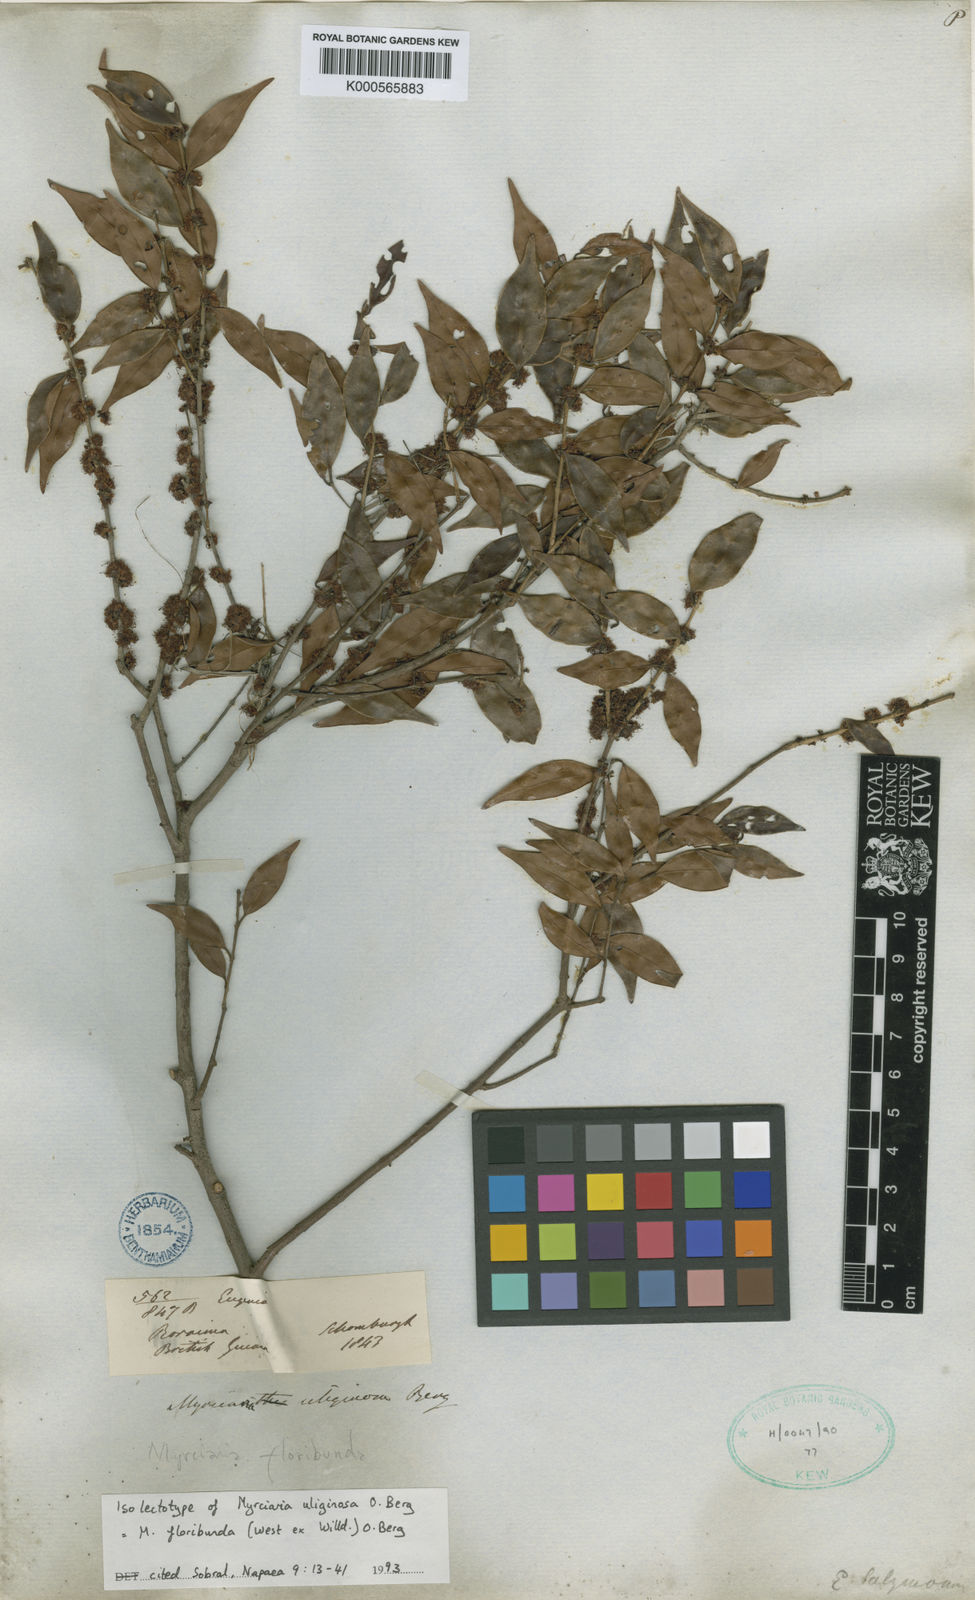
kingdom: Plantae
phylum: Tracheophyta
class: Magnoliopsida
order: Myrtales
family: Myrtaceae
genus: Myrciaria
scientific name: Myrciaria floribunda
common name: Guavaberry
